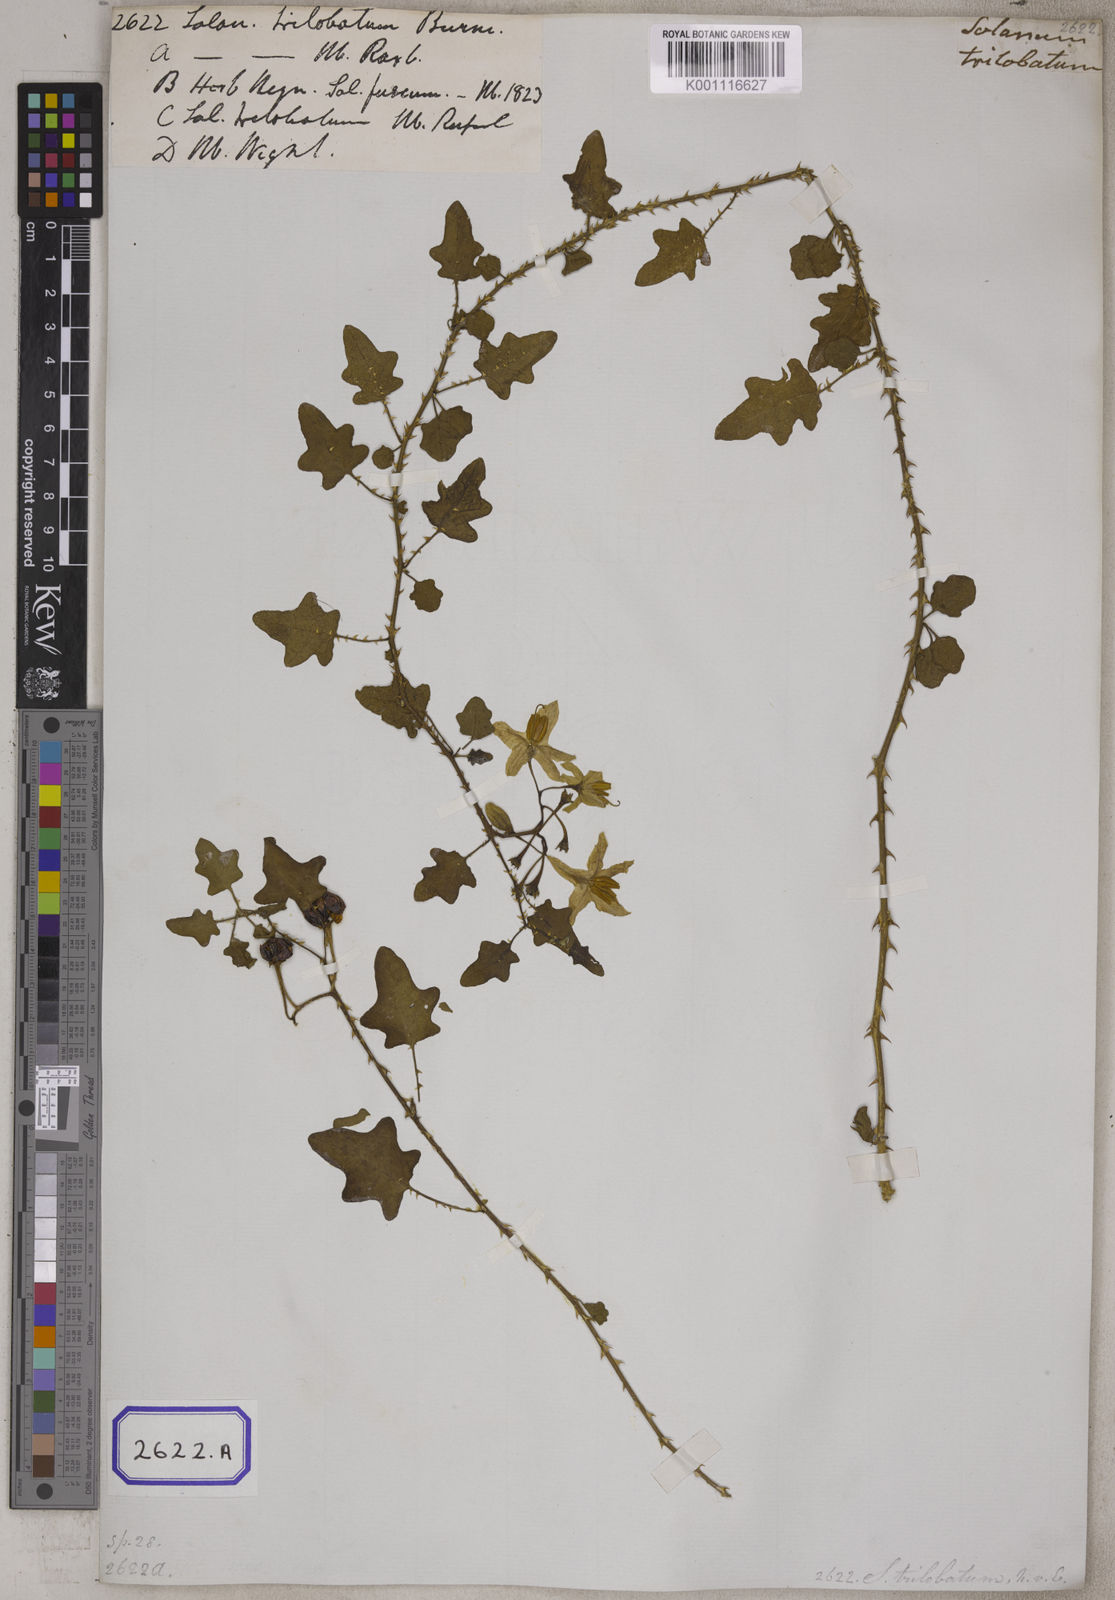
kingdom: Plantae
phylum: Tracheophyta
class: Magnoliopsida
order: Solanales
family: Solanaceae
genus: Solanum
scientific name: Solanum trilobatum
